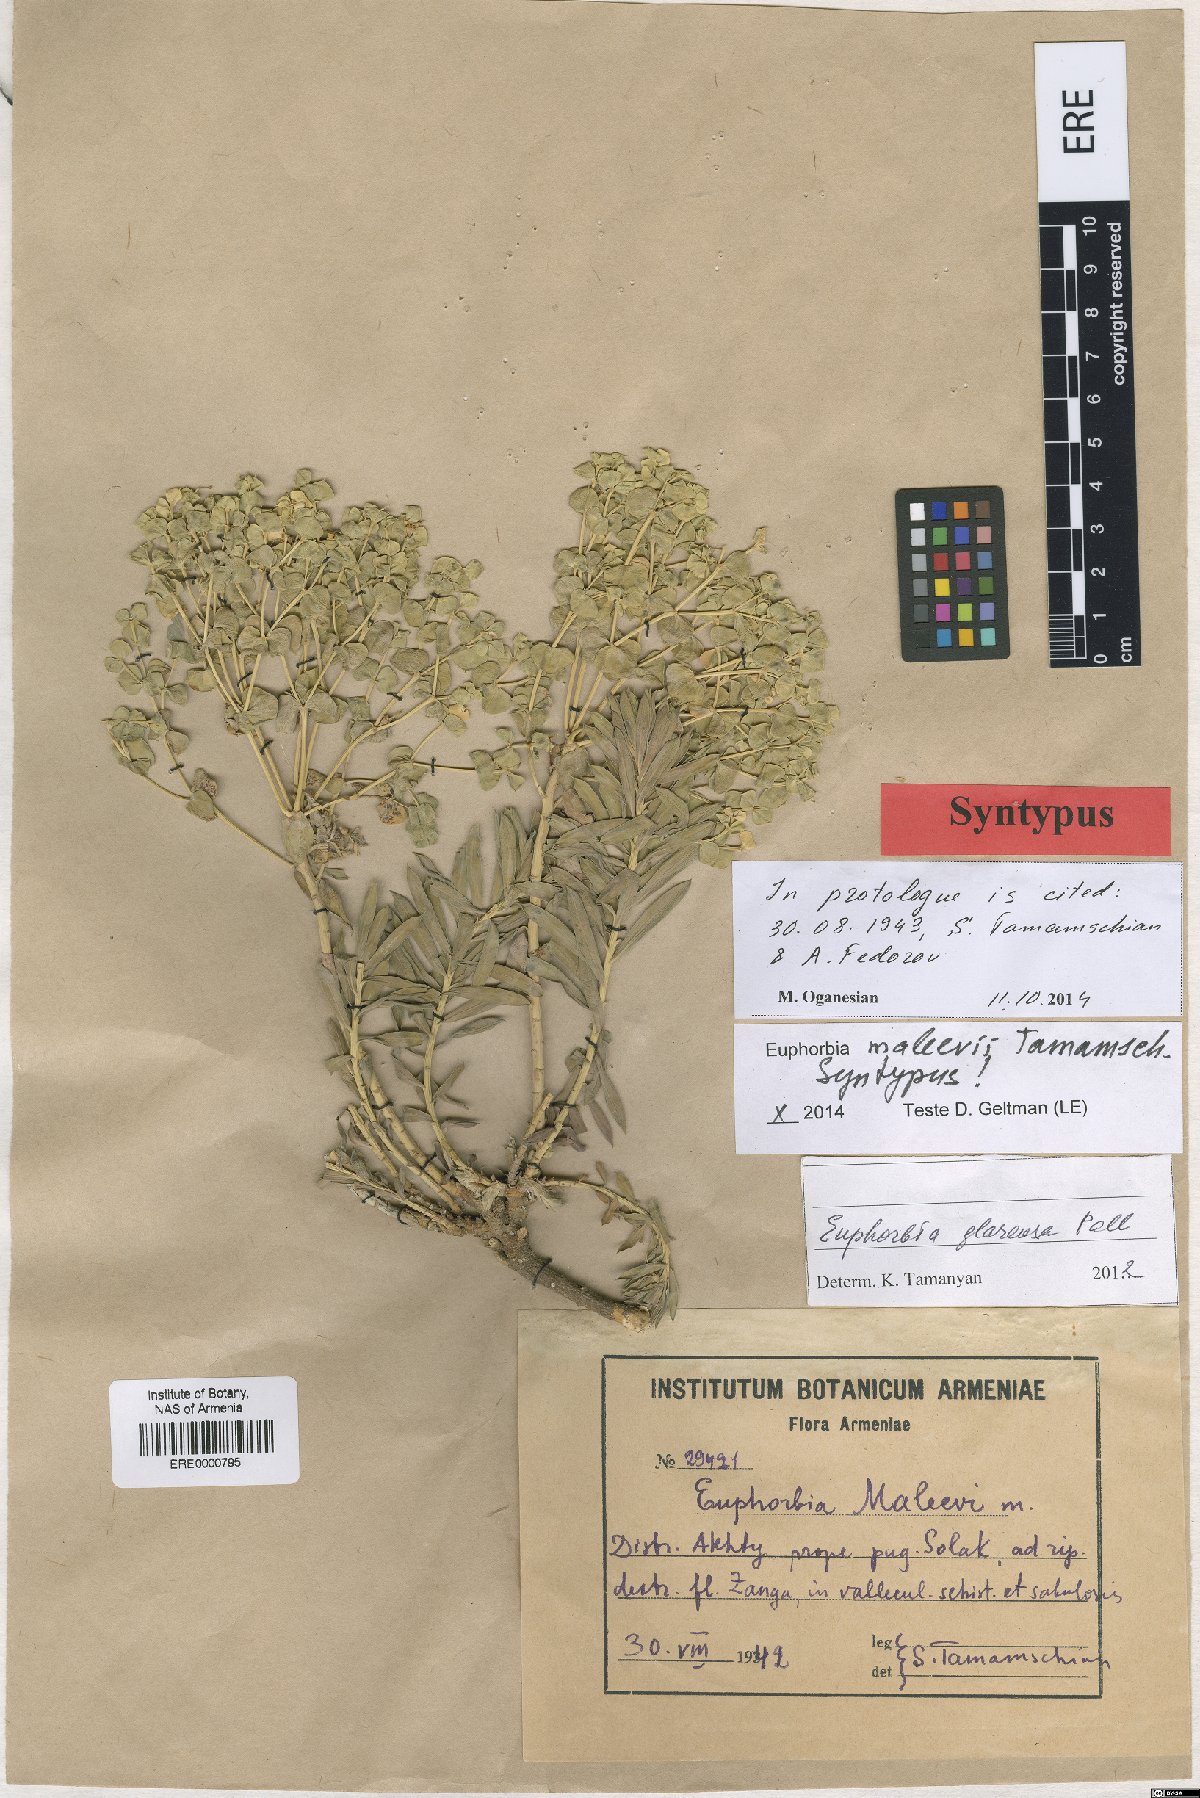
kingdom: Plantae
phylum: Tracheophyta
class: Magnoliopsida
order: Malpighiales
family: Euphorbiaceae
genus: Euphorbia
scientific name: Euphorbia glareosa
